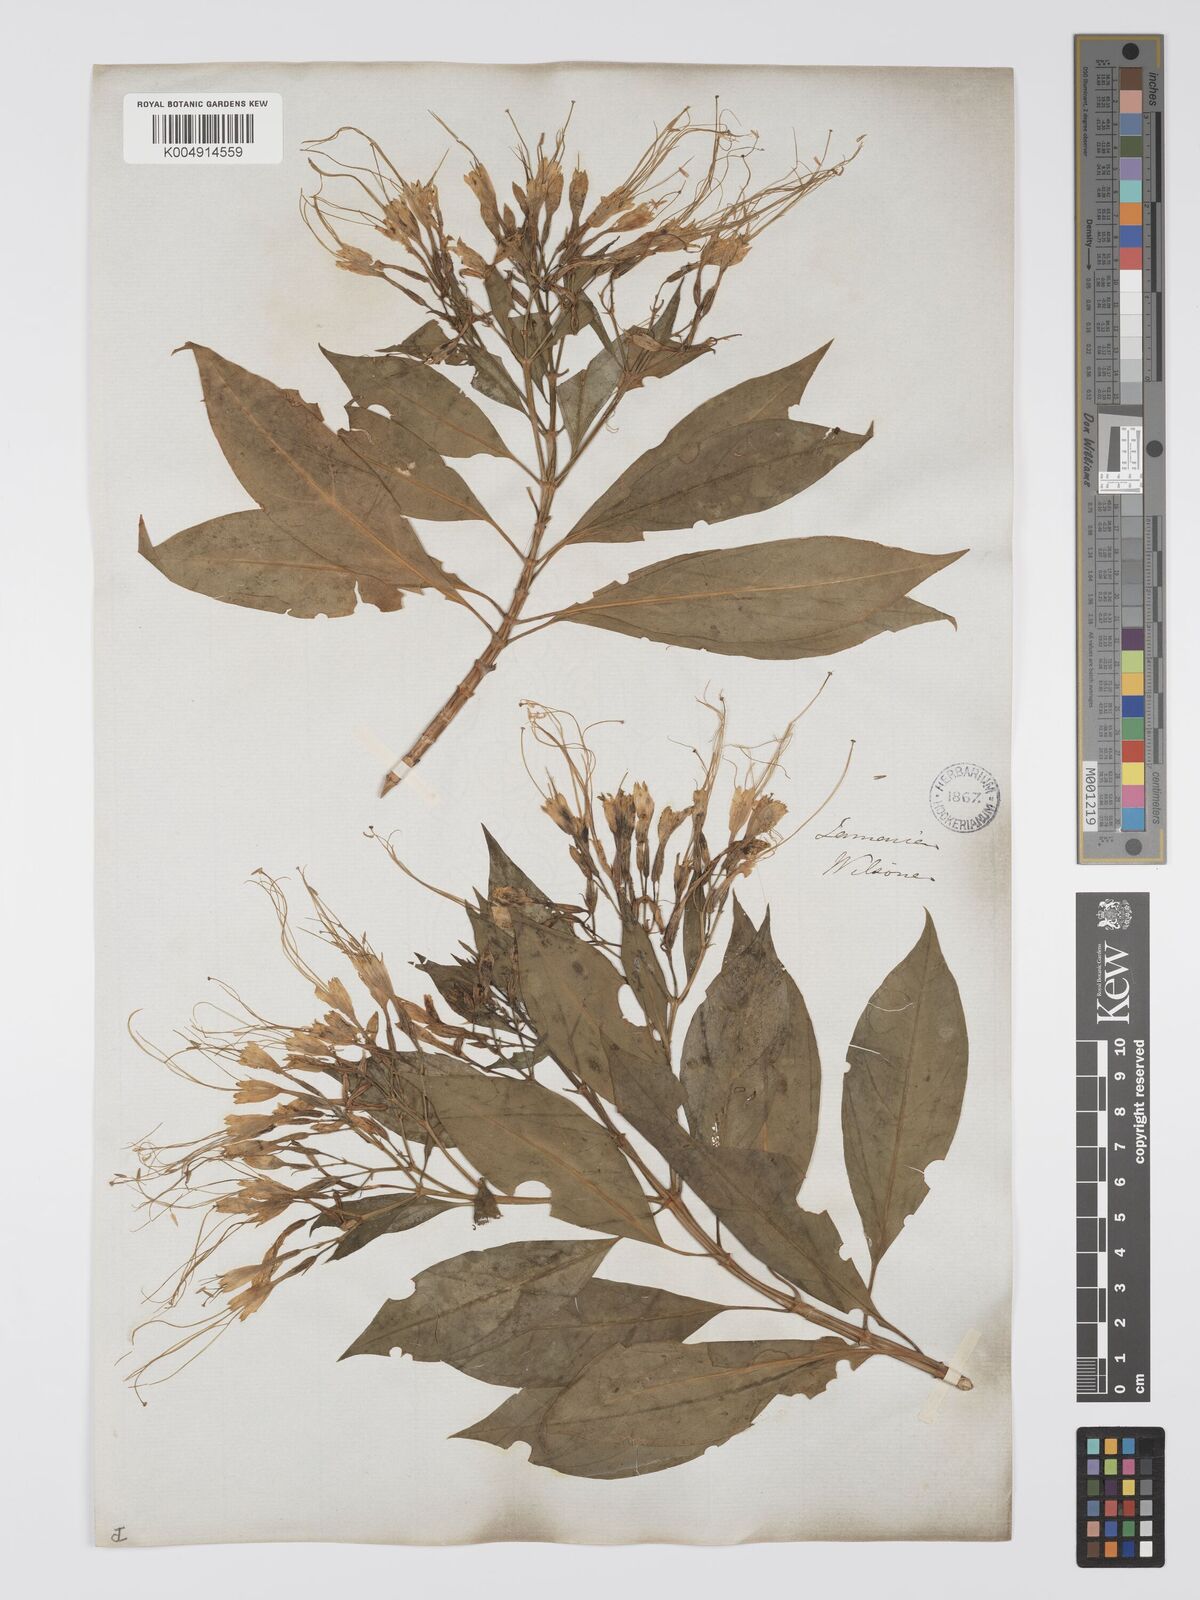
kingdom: Plantae
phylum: Tracheophyta
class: Magnoliopsida
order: Gentianales
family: Gentianaceae
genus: Lisianthus
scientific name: Lisianthus exsertus
